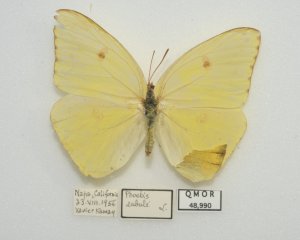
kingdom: Animalia
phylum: Arthropoda
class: Insecta
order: Lepidoptera
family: Pieridae
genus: Phoebis
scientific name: Phoebis sennae
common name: Cloudless Sulphur
